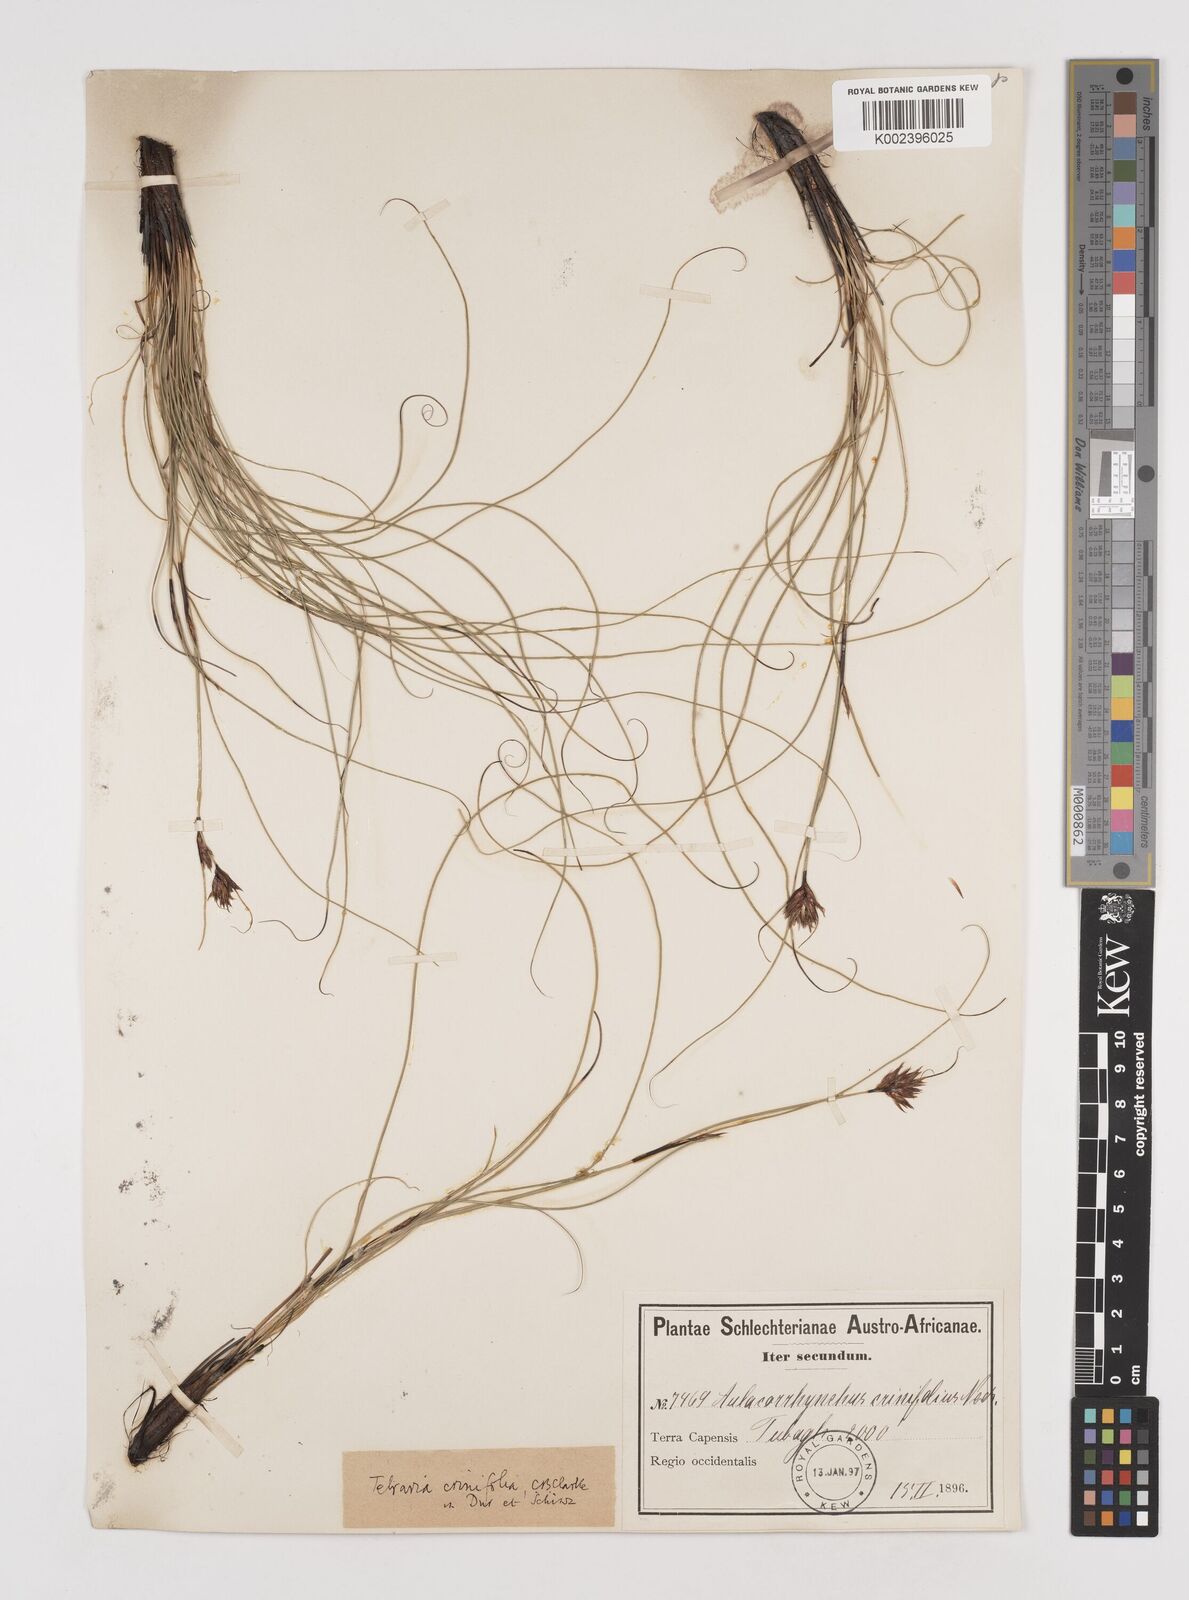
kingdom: Plantae
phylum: Tracheophyta
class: Liliopsida
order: Poales
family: Cyperaceae
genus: Tetraria
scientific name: Tetraria crinifolia
